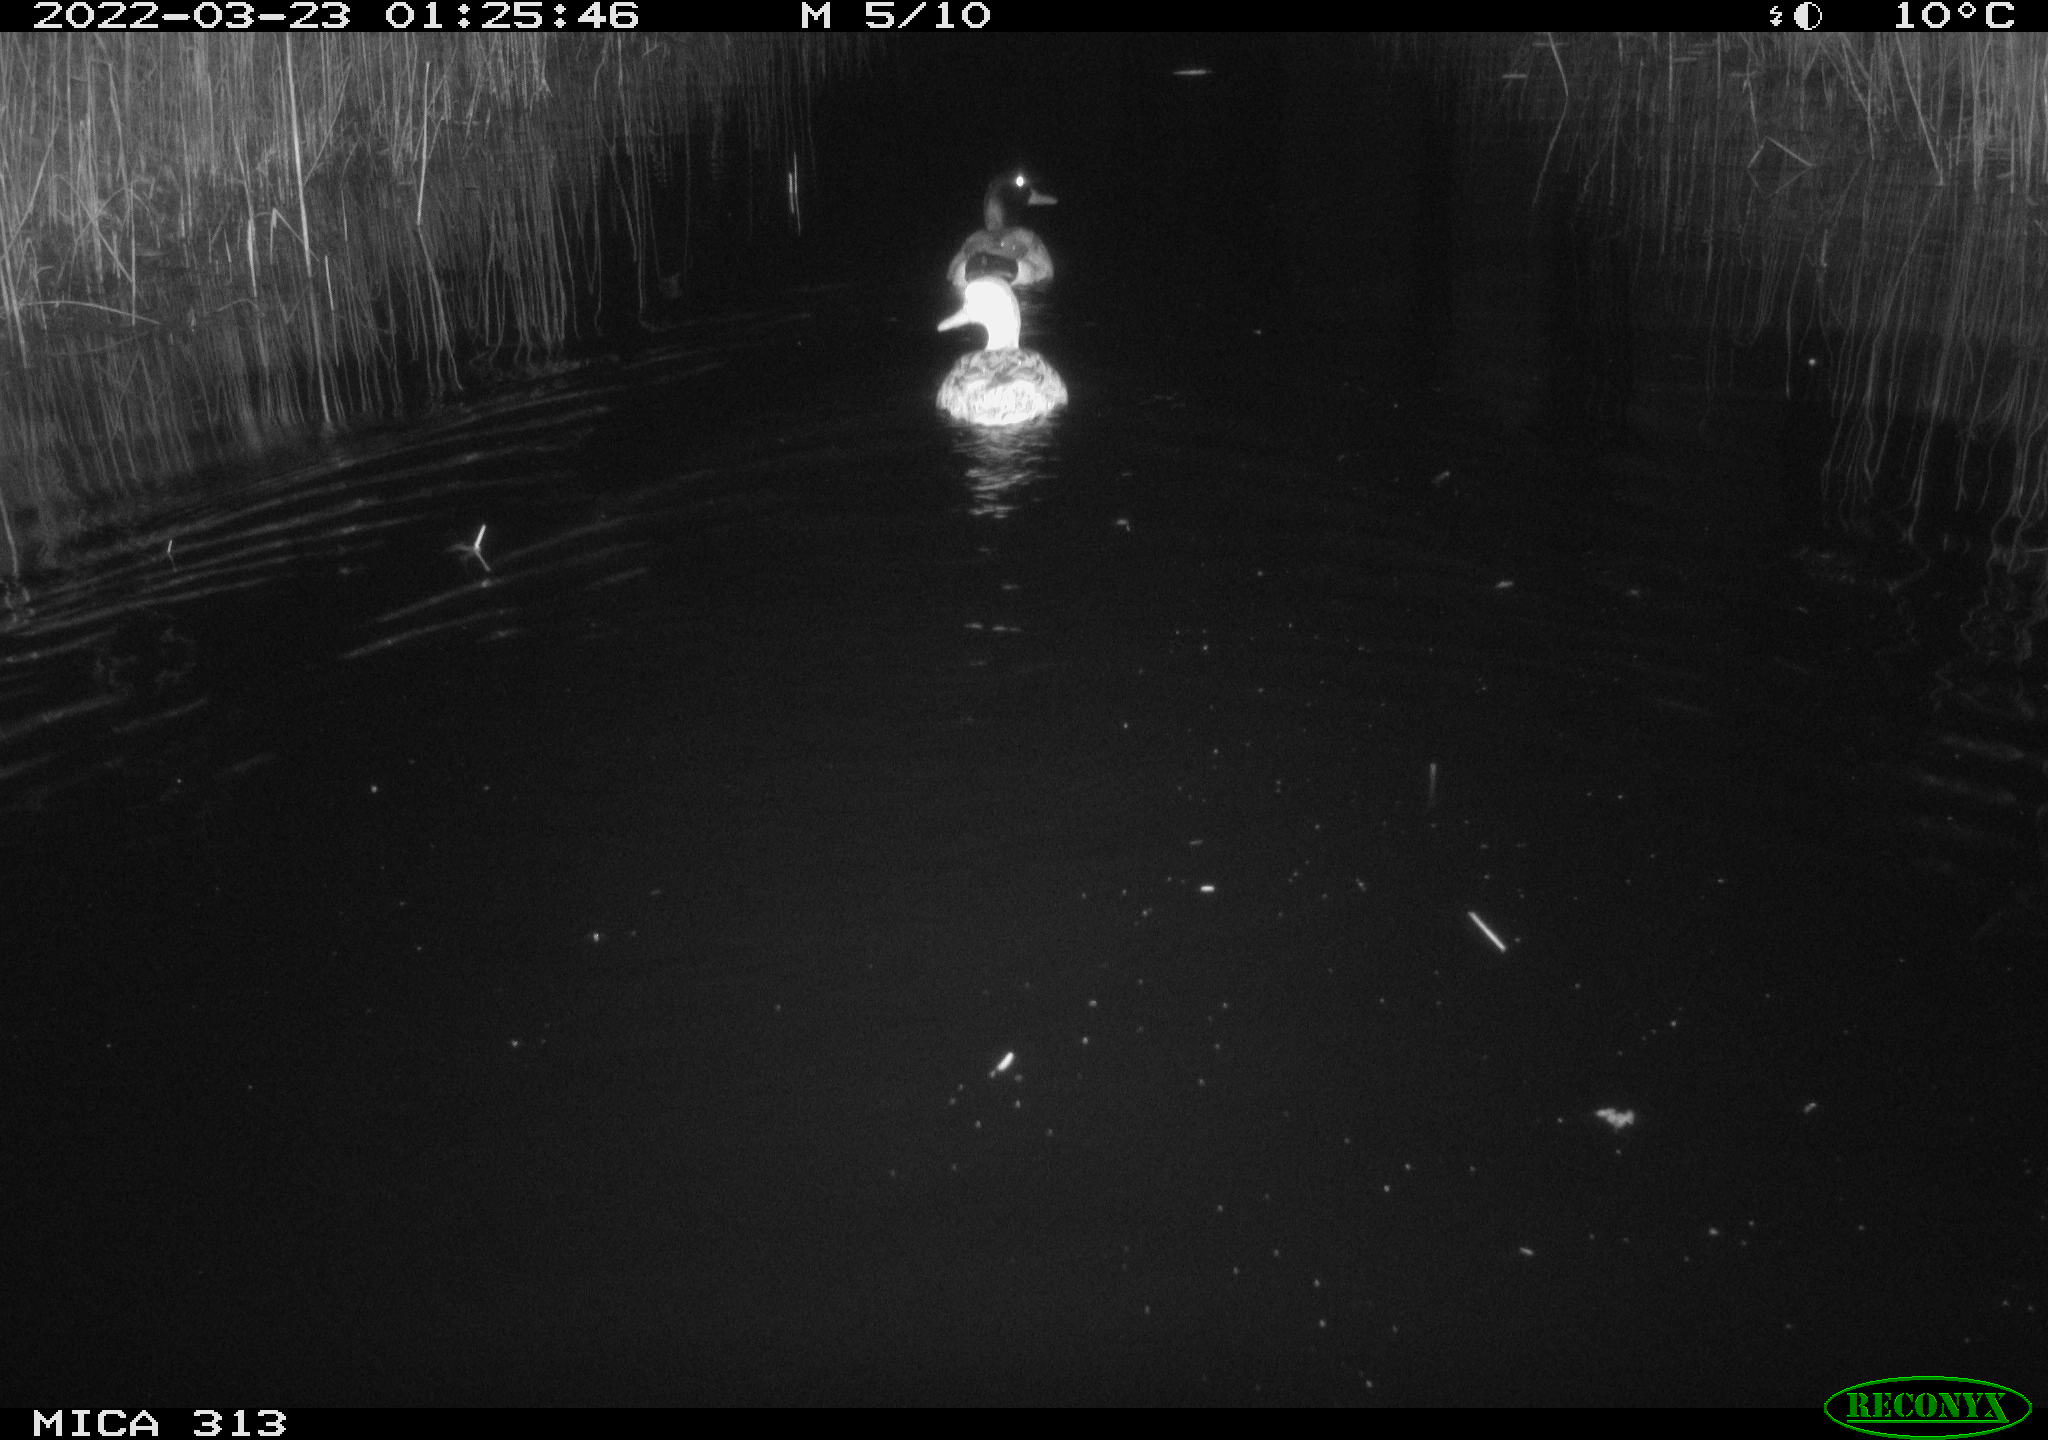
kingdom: Animalia
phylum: Chordata
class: Aves
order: Anseriformes
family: Anatidae
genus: Anas
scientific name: Anas platyrhynchos
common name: Mallard
